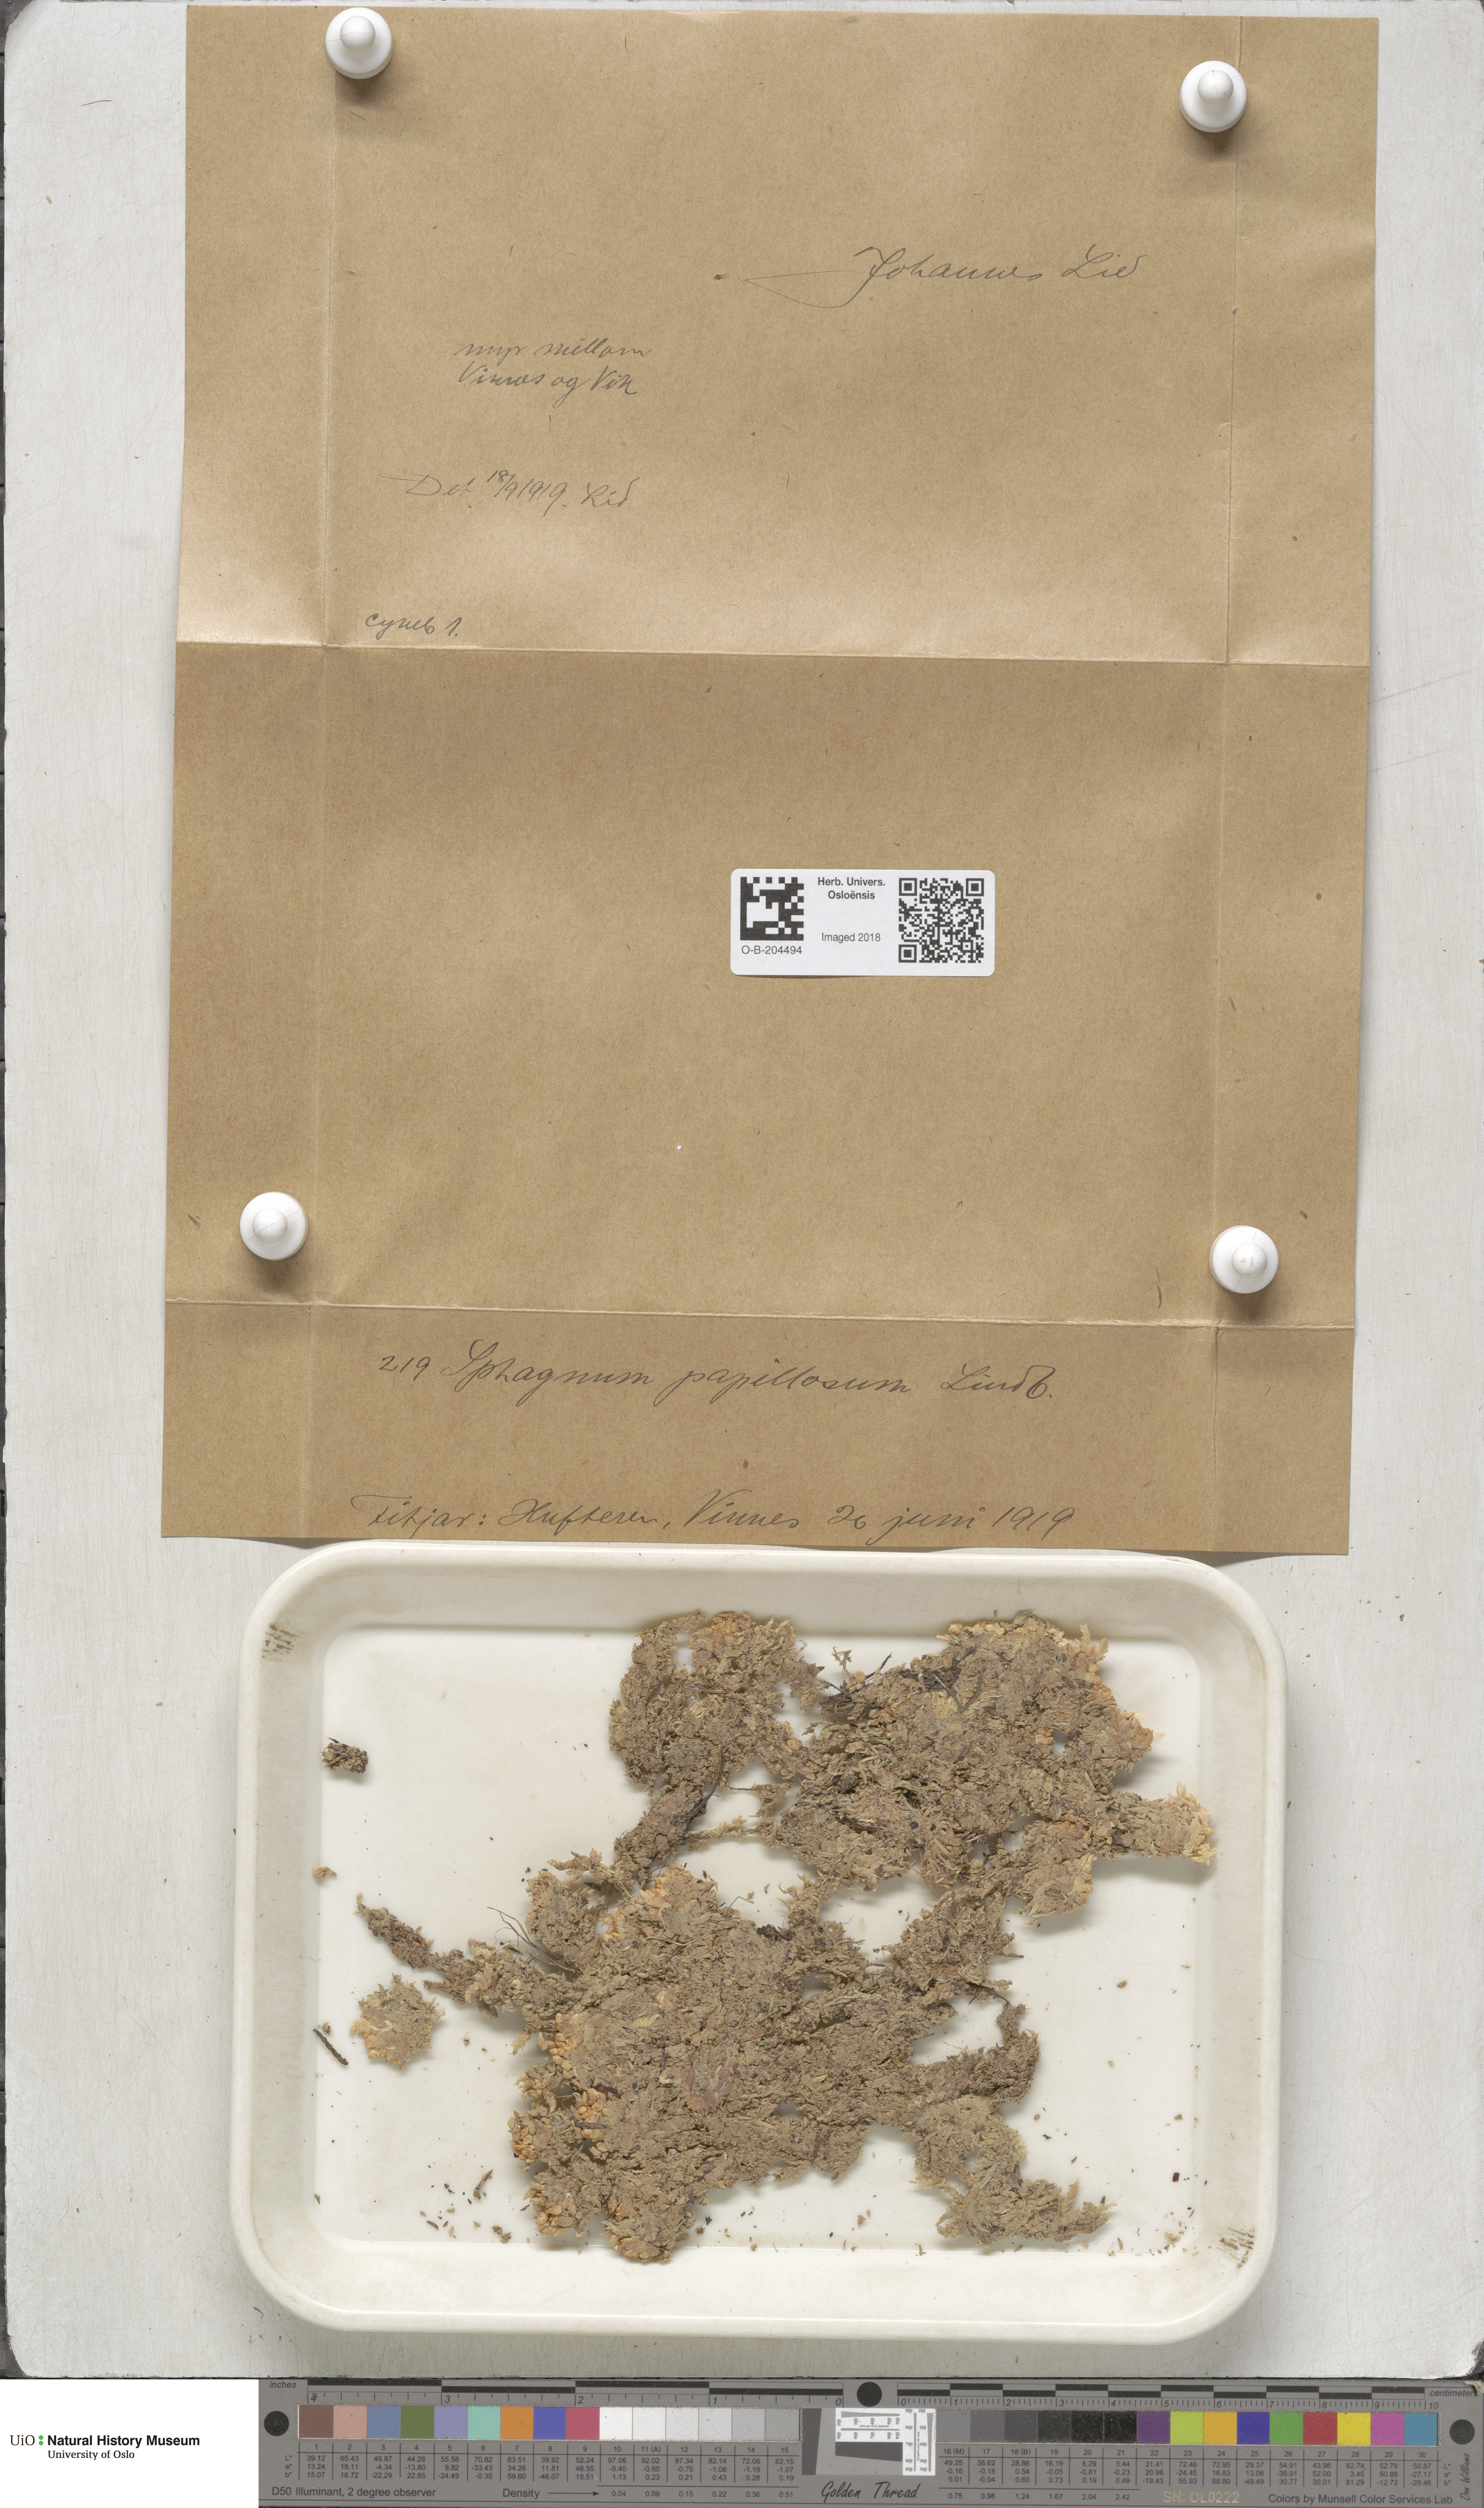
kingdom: Plantae
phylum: Bryophyta
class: Sphagnopsida
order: Sphagnales
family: Sphagnaceae
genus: Sphagnum
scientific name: Sphagnum papillosum
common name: Papillose peat moss
